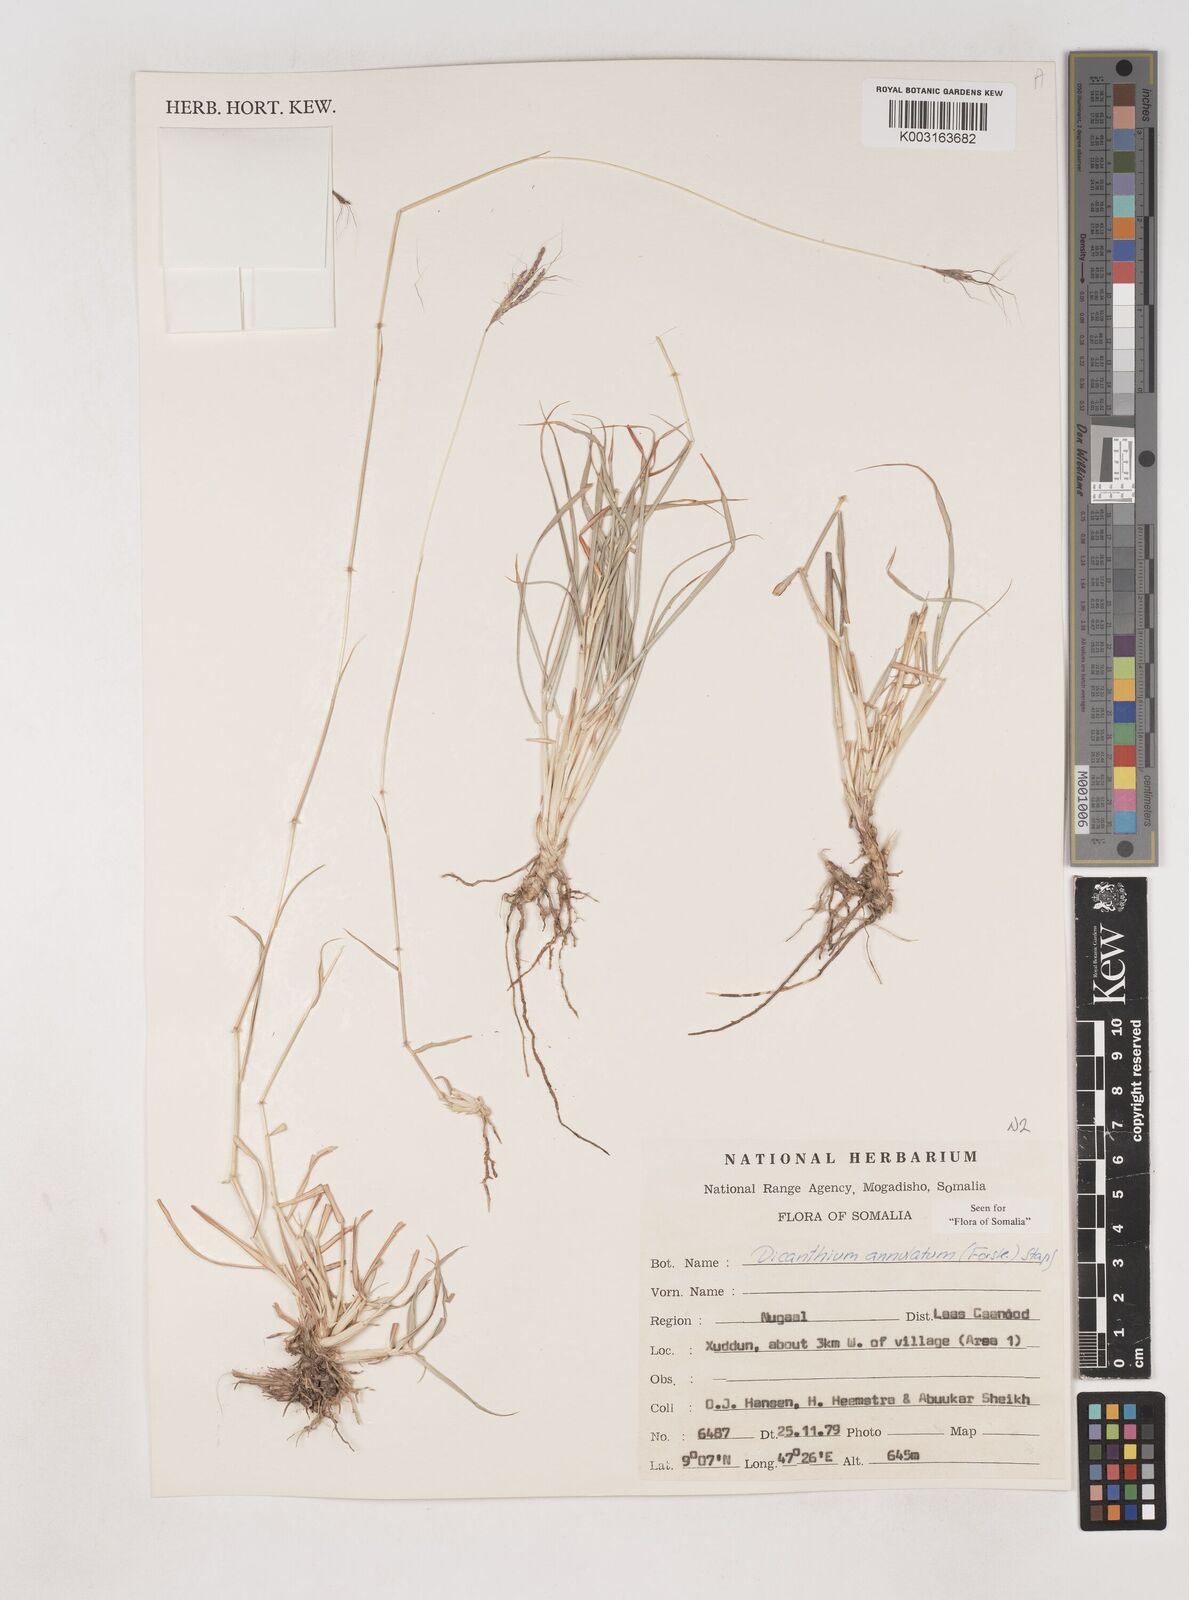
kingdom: Plantae
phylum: Tracheophyta
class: Liliopsida
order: Poales
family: Poaceae
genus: Dichanthium
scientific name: Dichanthium annulatum
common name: Kleberg's bluestem
